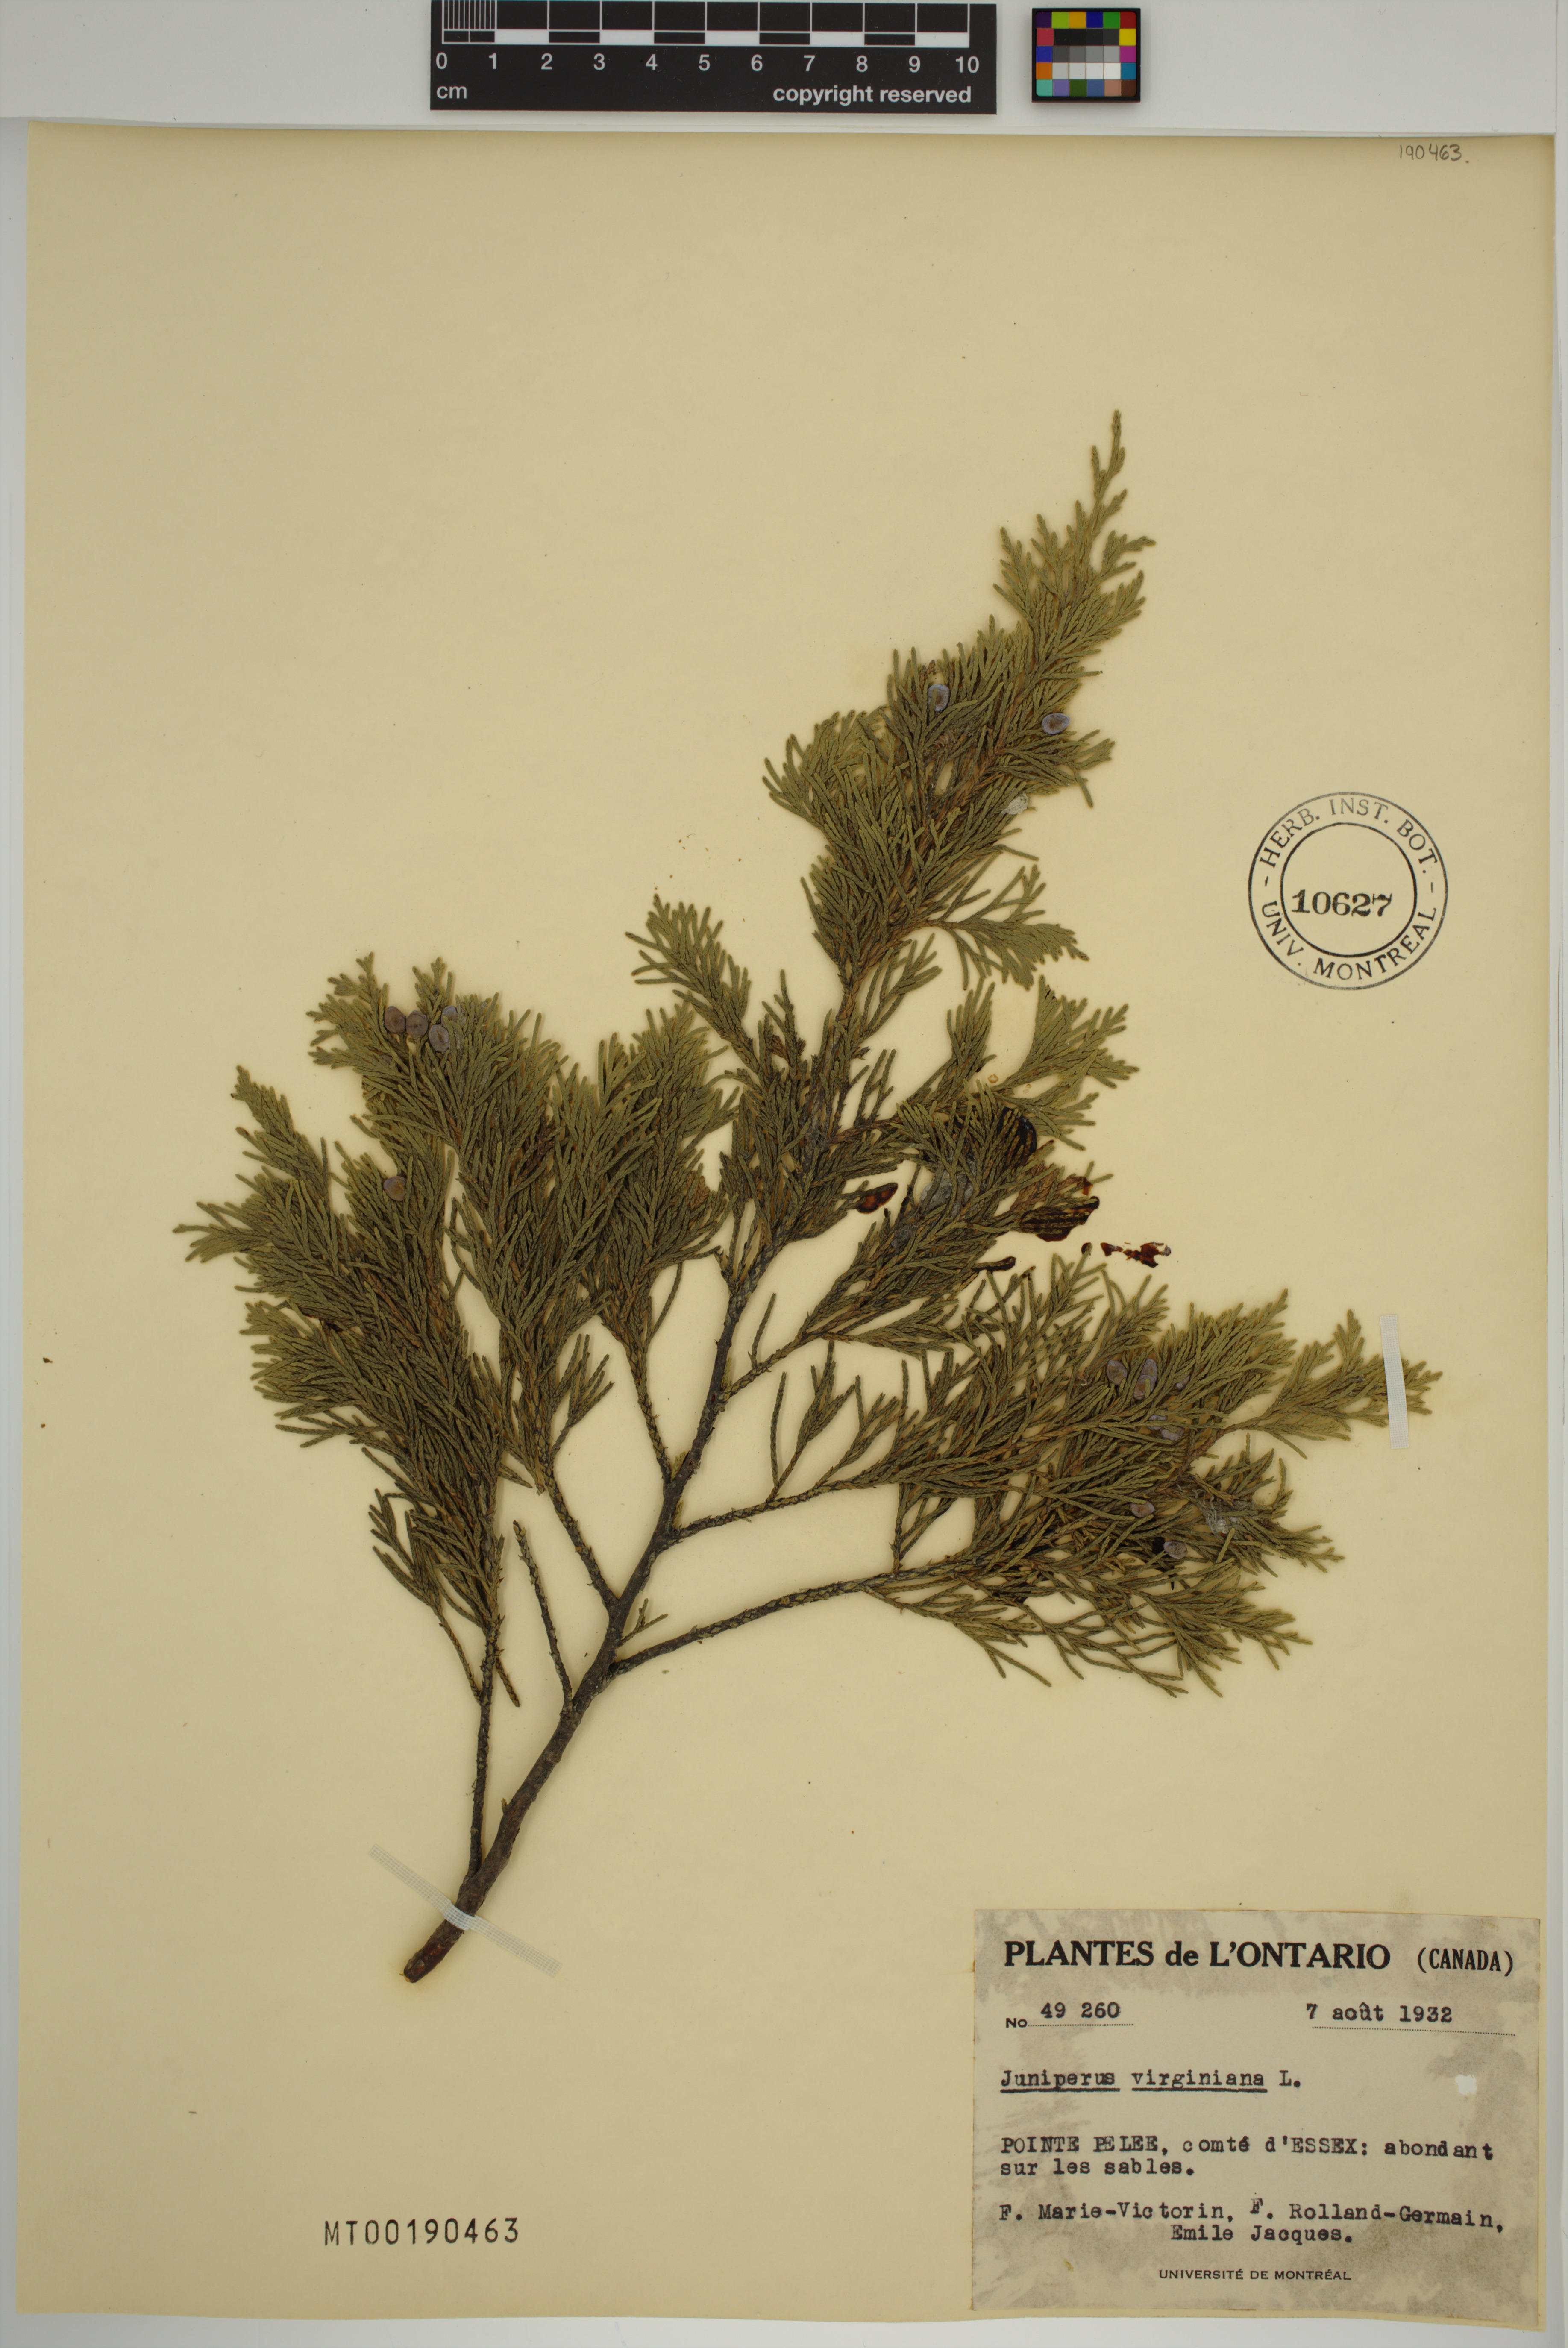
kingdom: Plantae
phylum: Tracheophyta
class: Pinopsida
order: Pinales
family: Cupressaceae
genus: Juniperus
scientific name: Juniperus virginiana
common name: Red juniper
